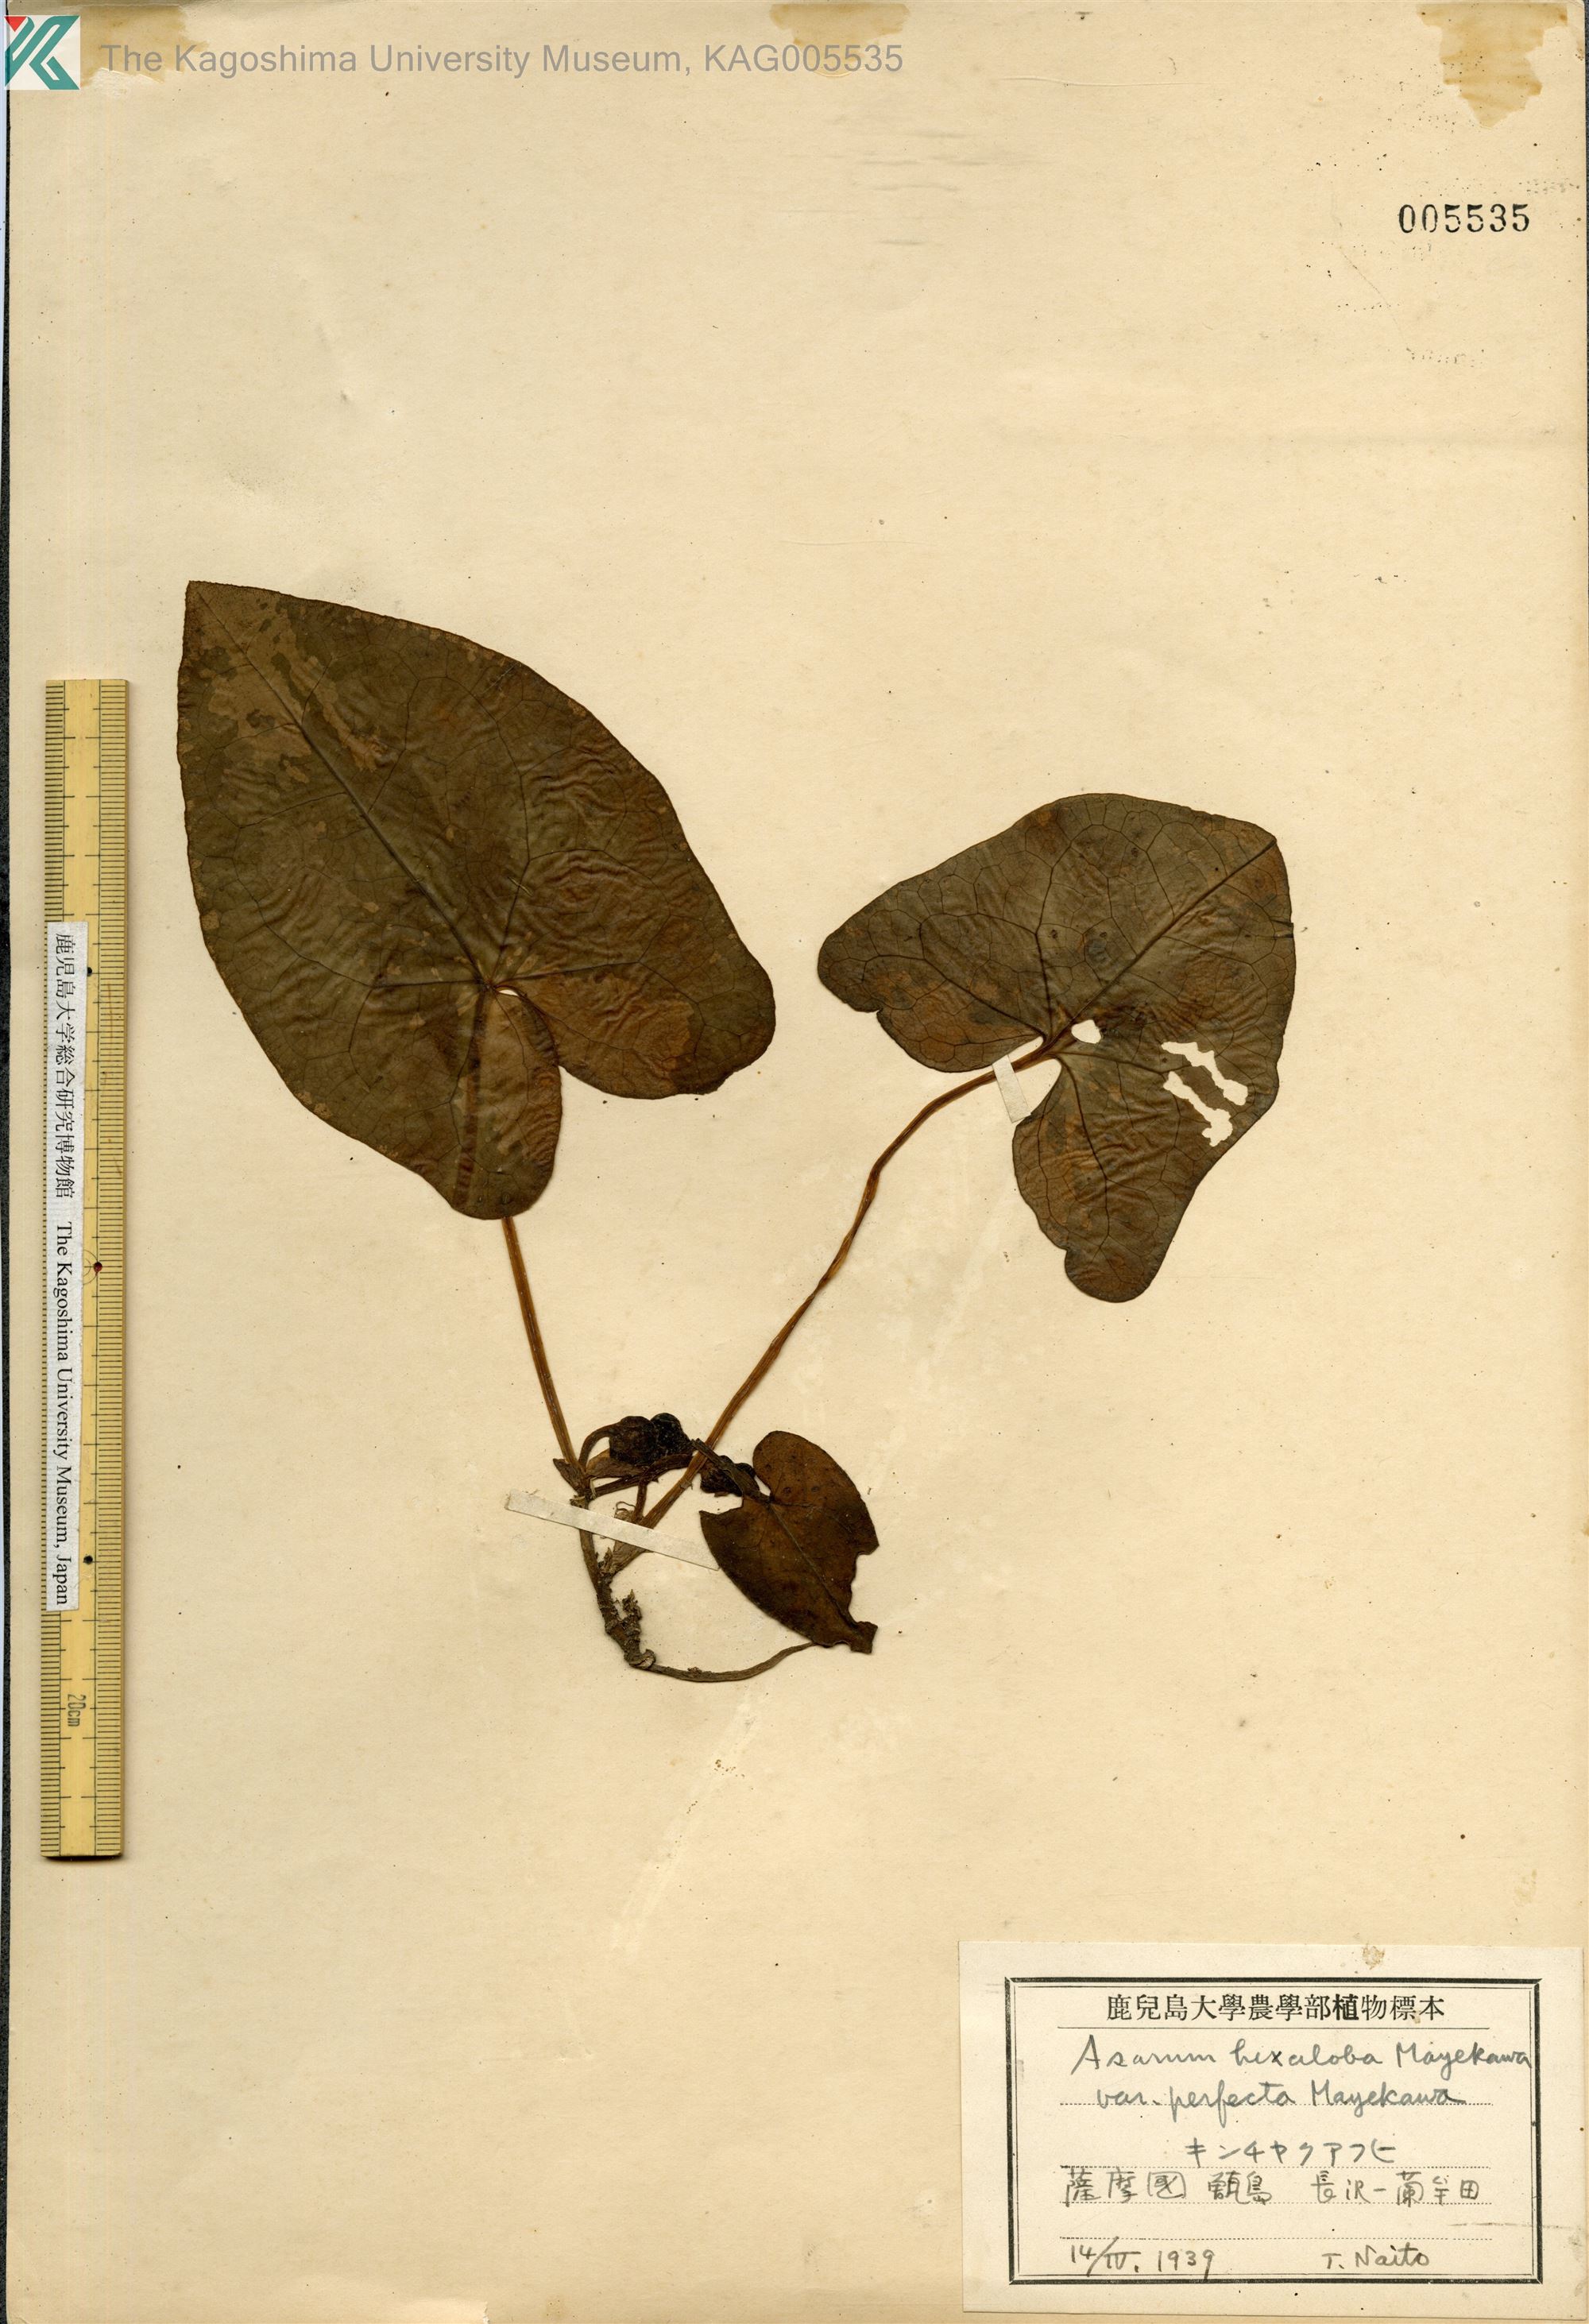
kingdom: Plantae
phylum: Tracheophyta
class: Magnoliopsida
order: Piperales
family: Aristolochiaceae
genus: Asarum
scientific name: Asarum hexalobum
